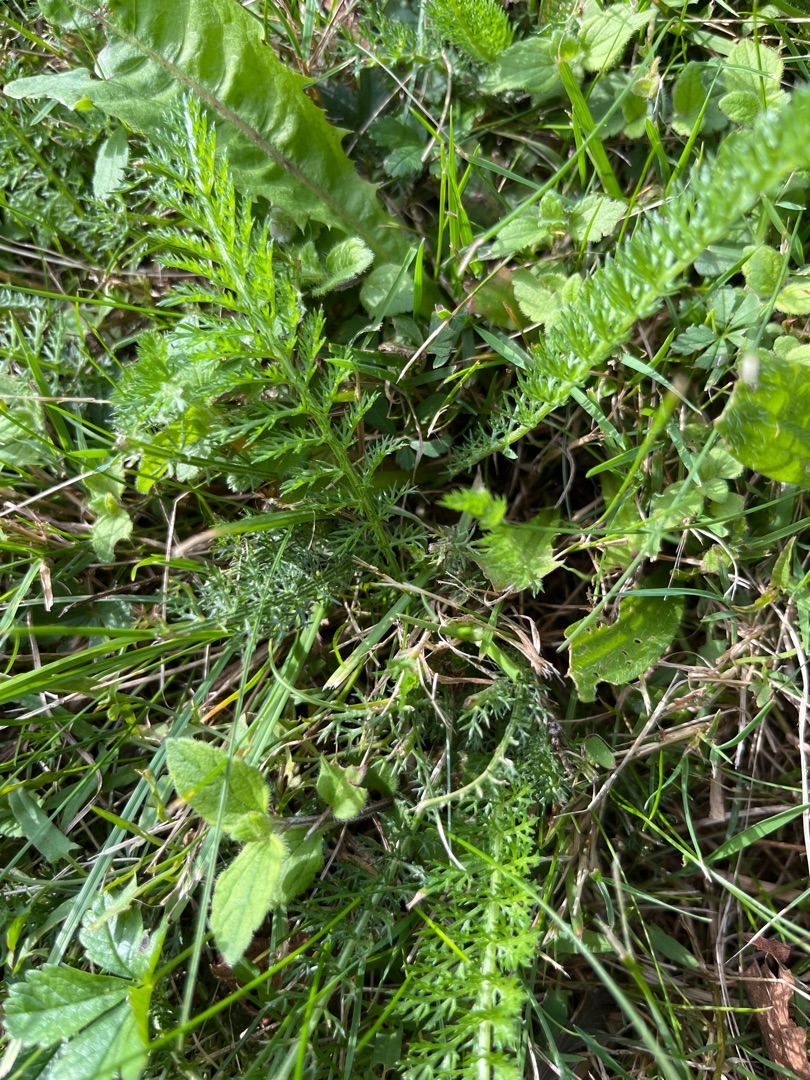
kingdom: Plantae
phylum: Tracheophyta
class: Magnoliopsida
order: Asterales
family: Asteraceae
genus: Achillea
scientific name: Achillea millefolium
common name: Almindelig røllike
